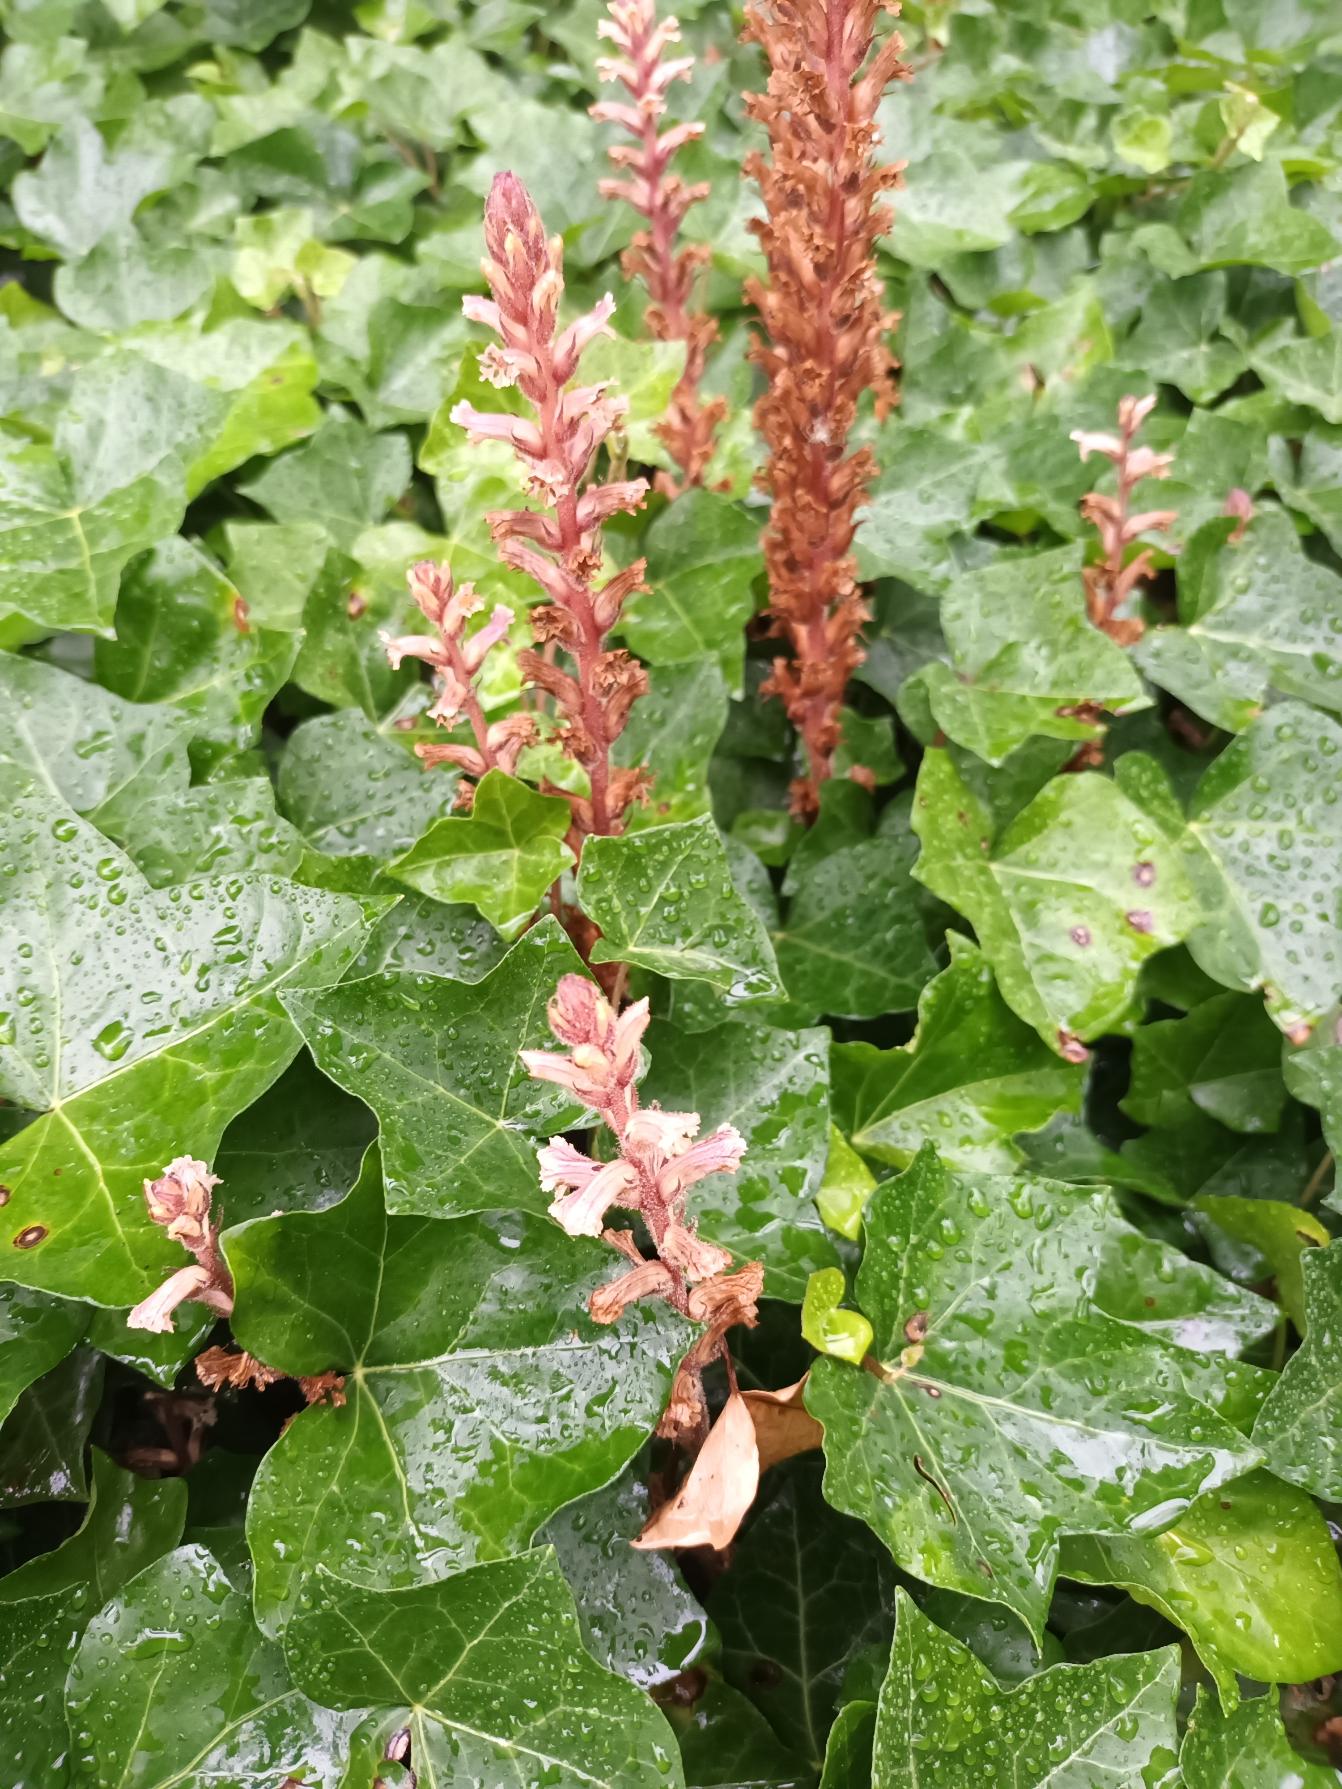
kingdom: Plantae
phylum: Tracheophyta
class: Magnoliopsida
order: Lamiales
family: Orobanchaceae
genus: Orobanche
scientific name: Orobanche hederae
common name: Vedbend-gyvelkvæler
